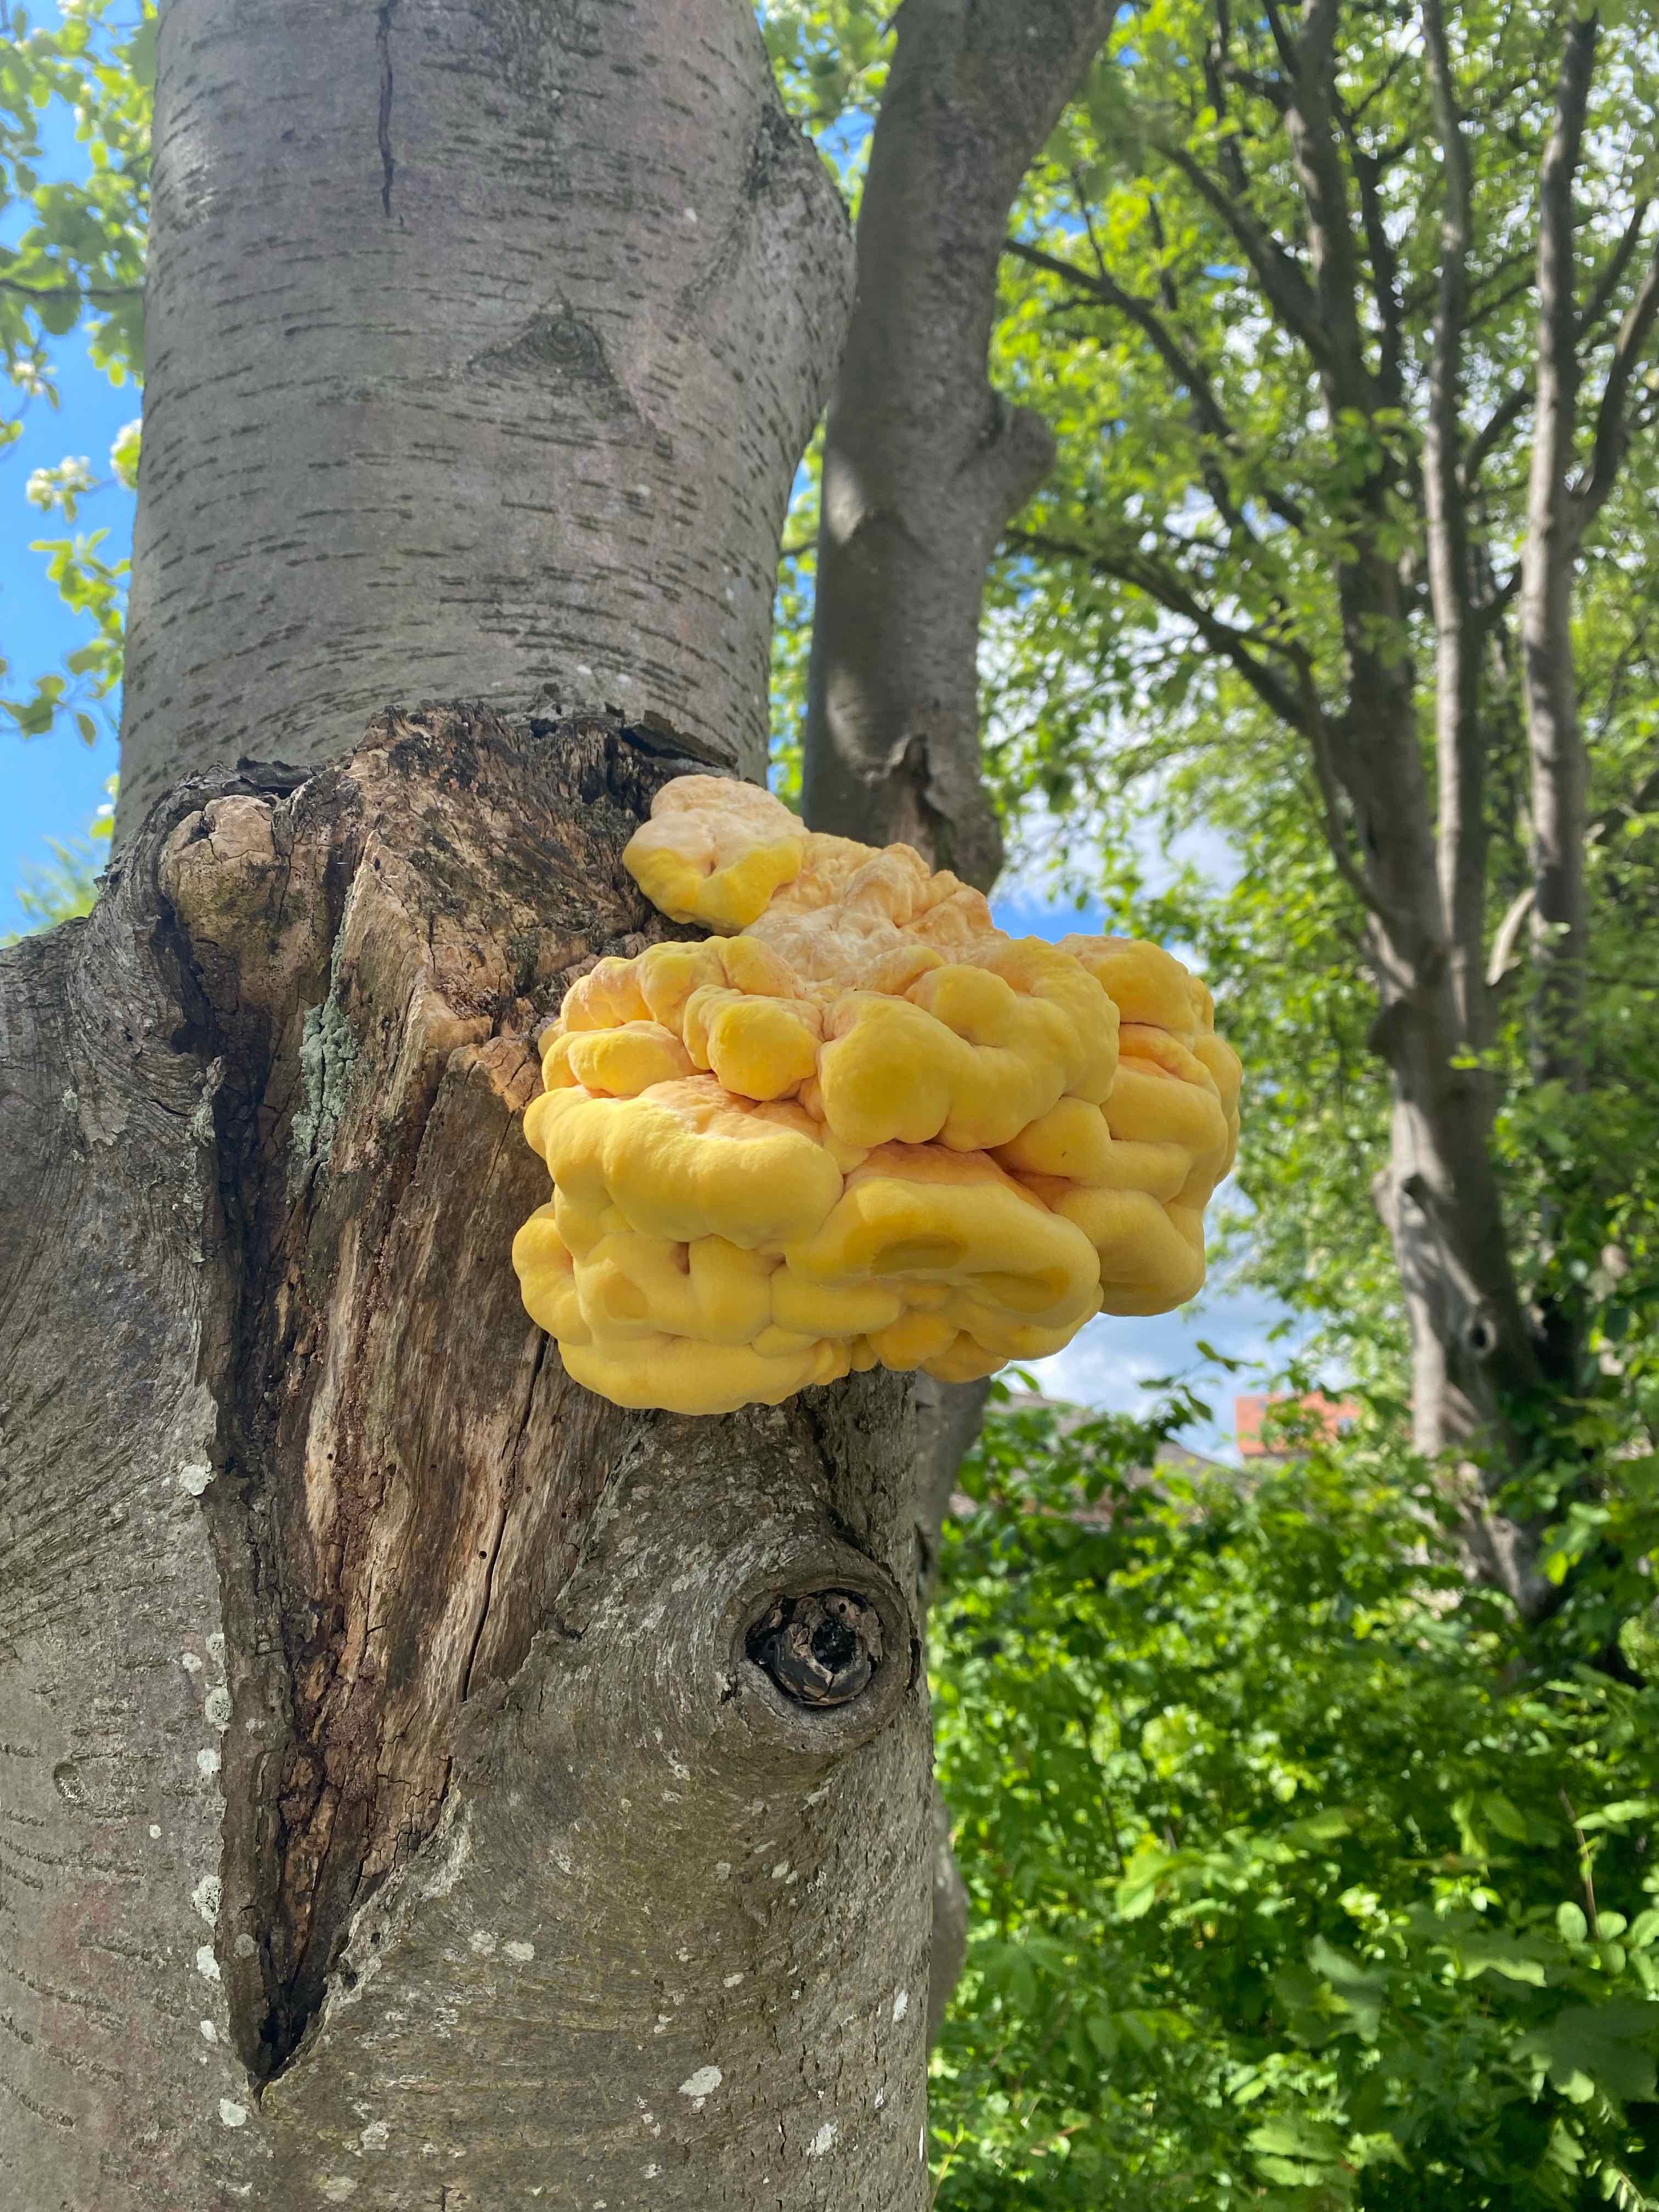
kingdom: Fungi
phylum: Basidiomycota
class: Agaricomycetes
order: Polyporales
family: Laetiporaceae
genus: Laetiporus
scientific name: Laetiporus sulphureus
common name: svovlporesvamp
